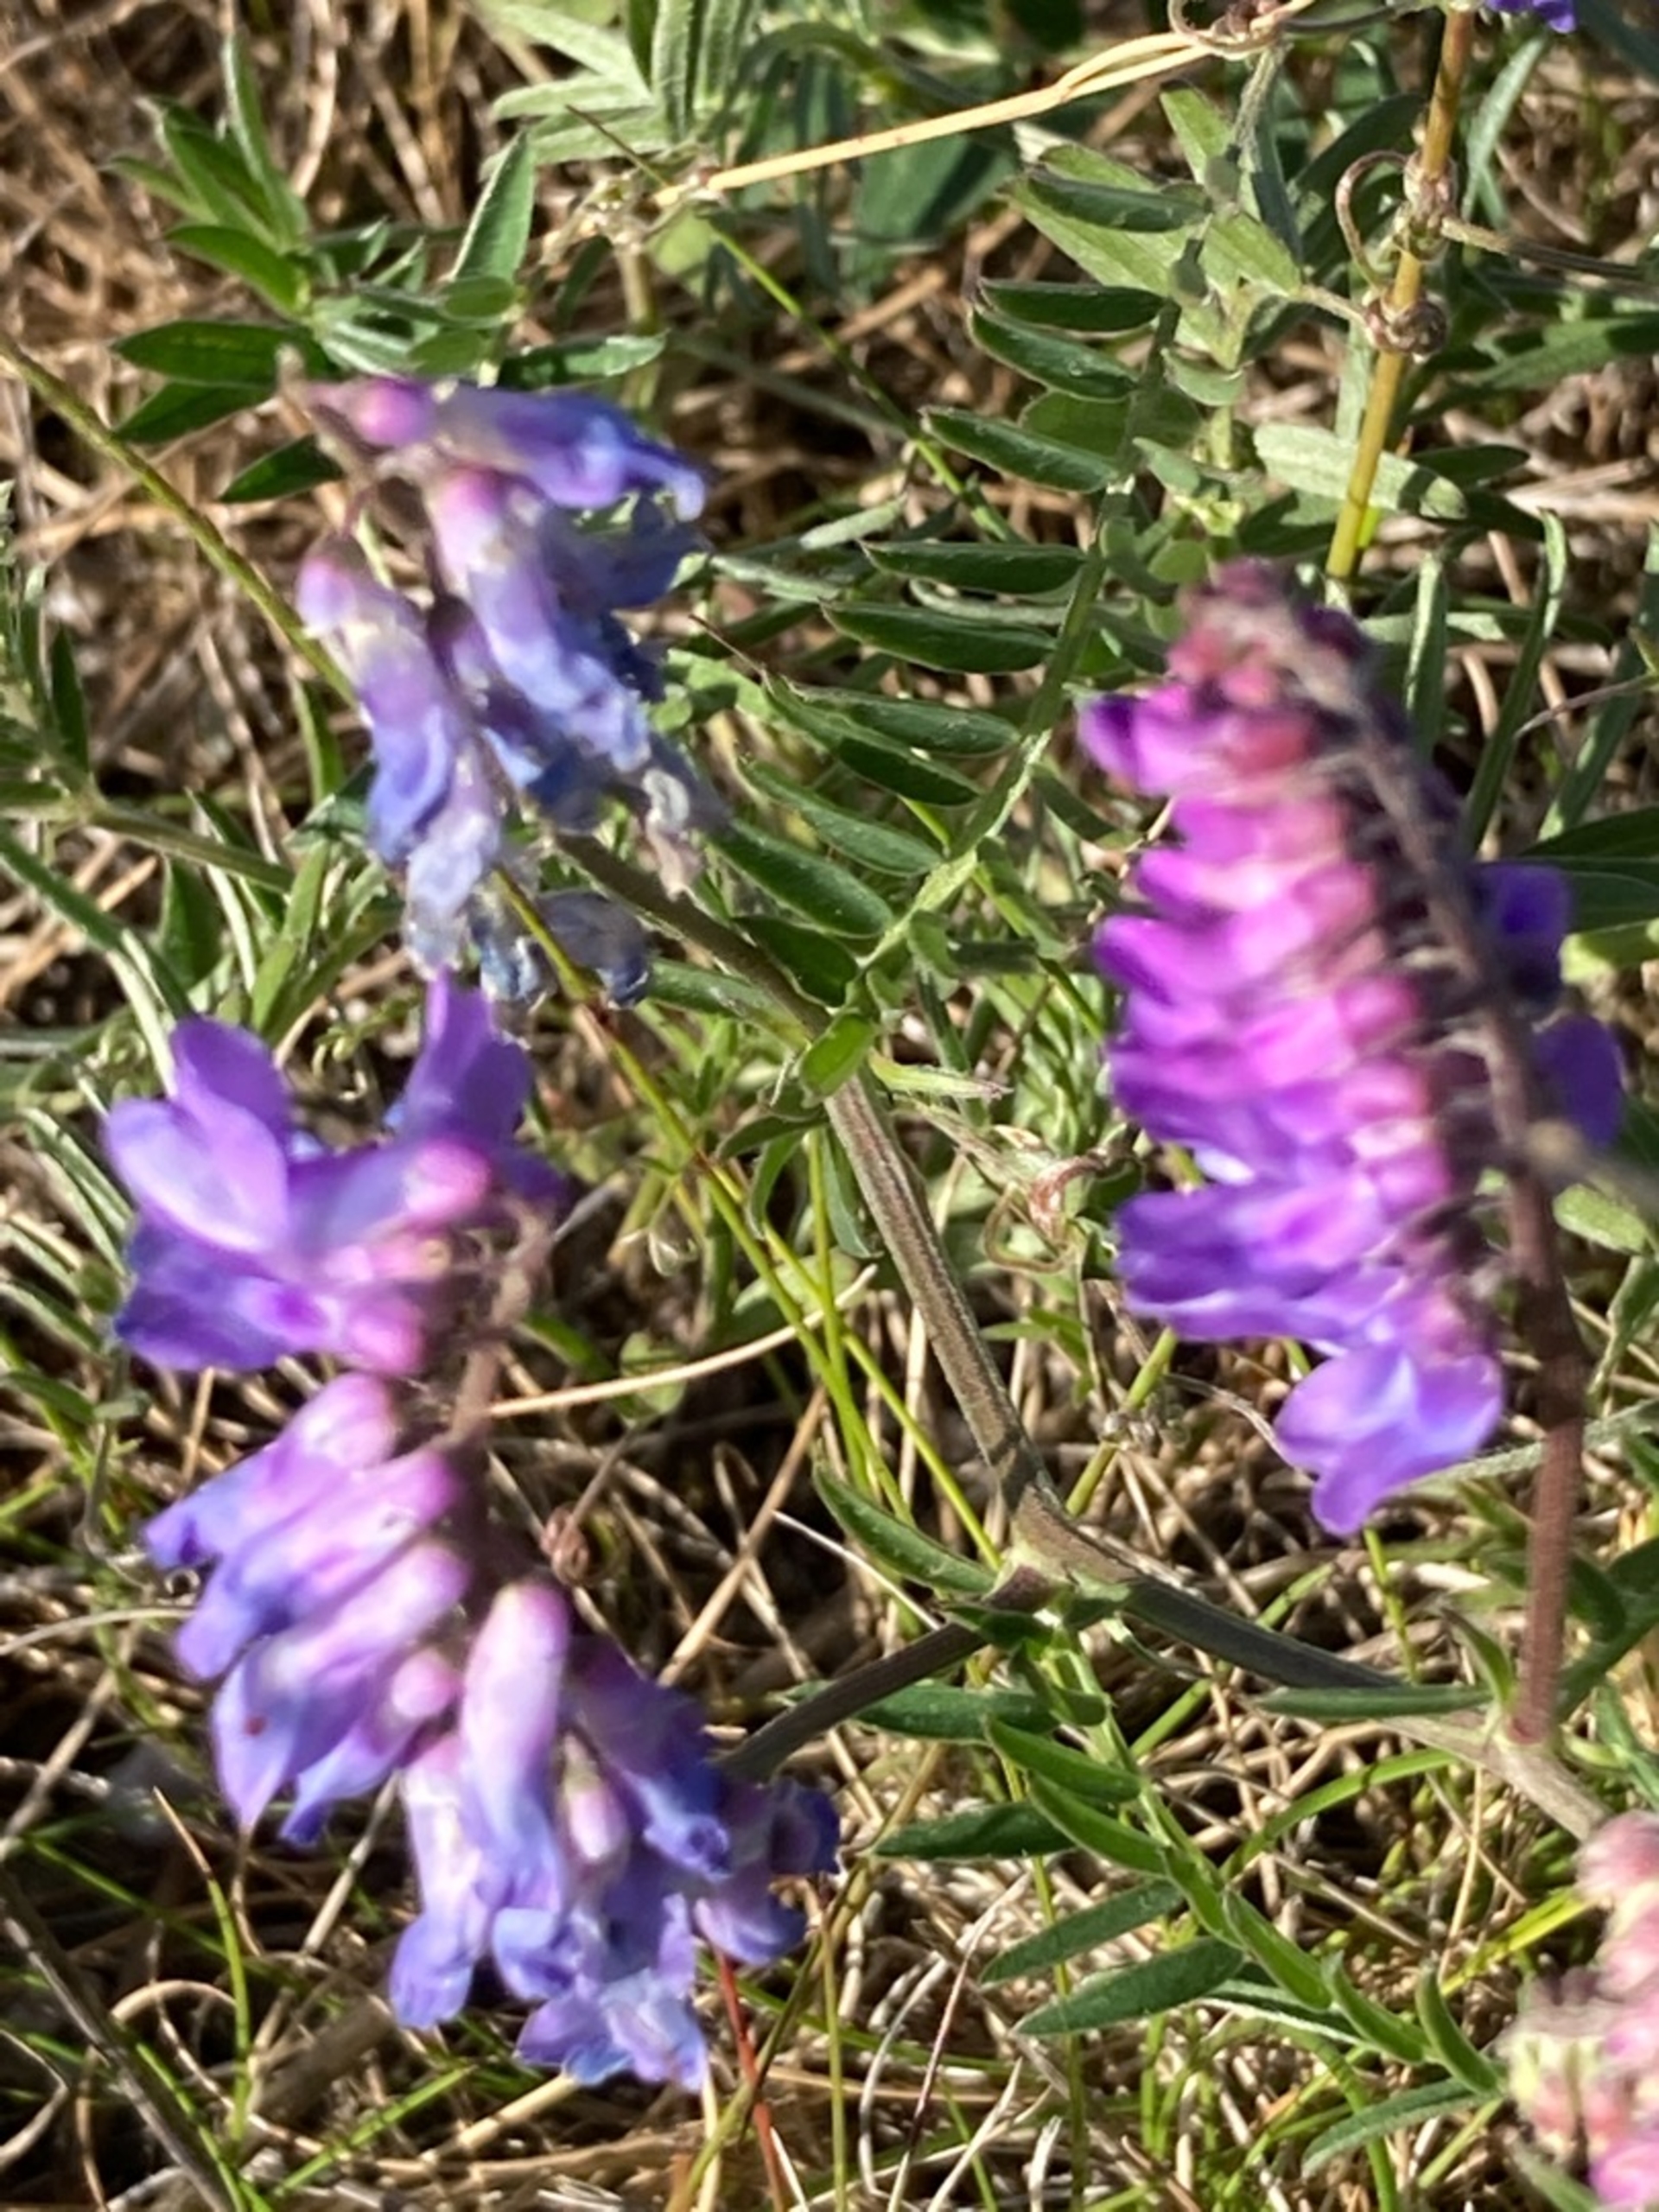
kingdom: Plantae
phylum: Tracheophyta
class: Magnoliopsida
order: Fabales
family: Fabaceae
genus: Vicia
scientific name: Vicia cracca
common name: Muse-vikke
